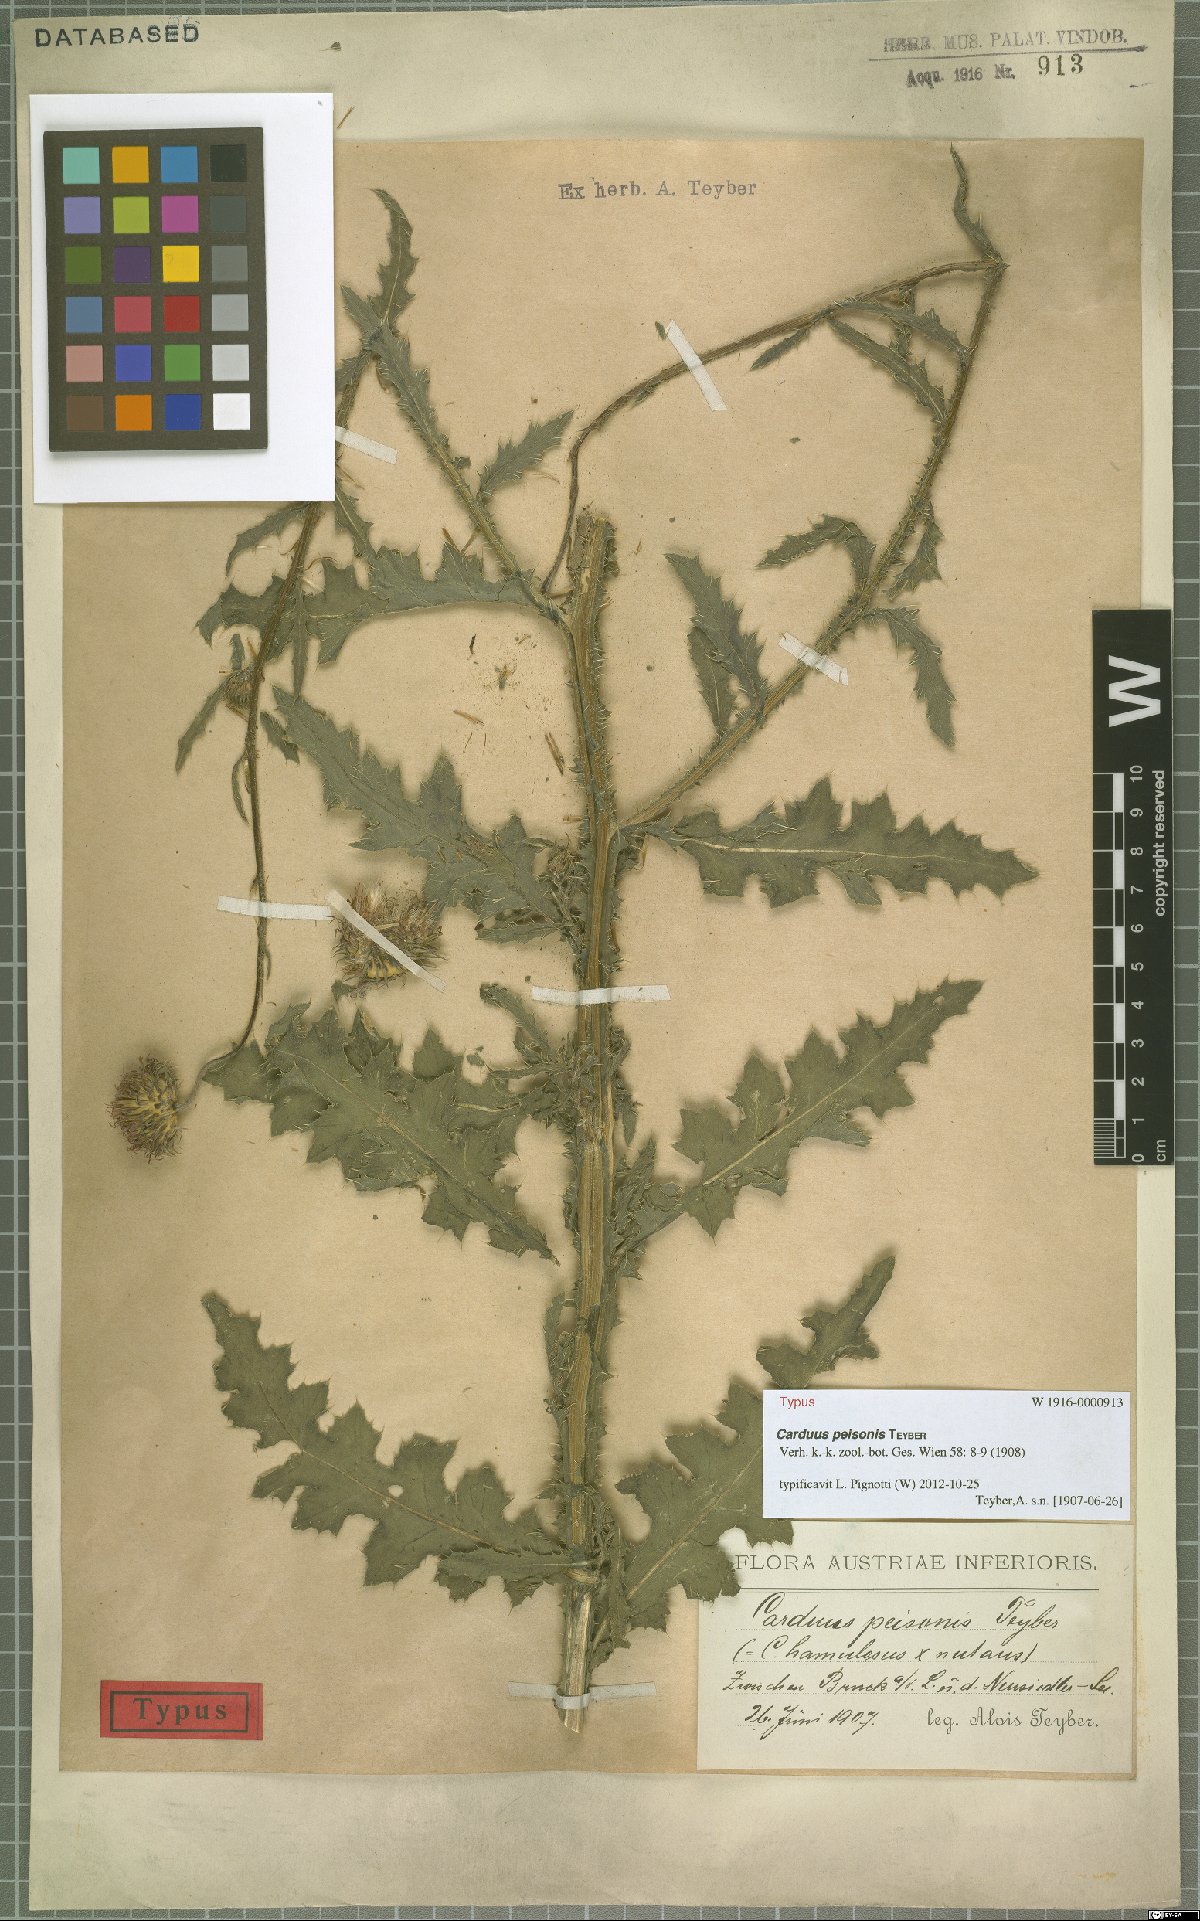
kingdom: Plantae
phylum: Tracheophyta
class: Magnoliopsida
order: Asterales
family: Asteraceae
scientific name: Asteraceae
